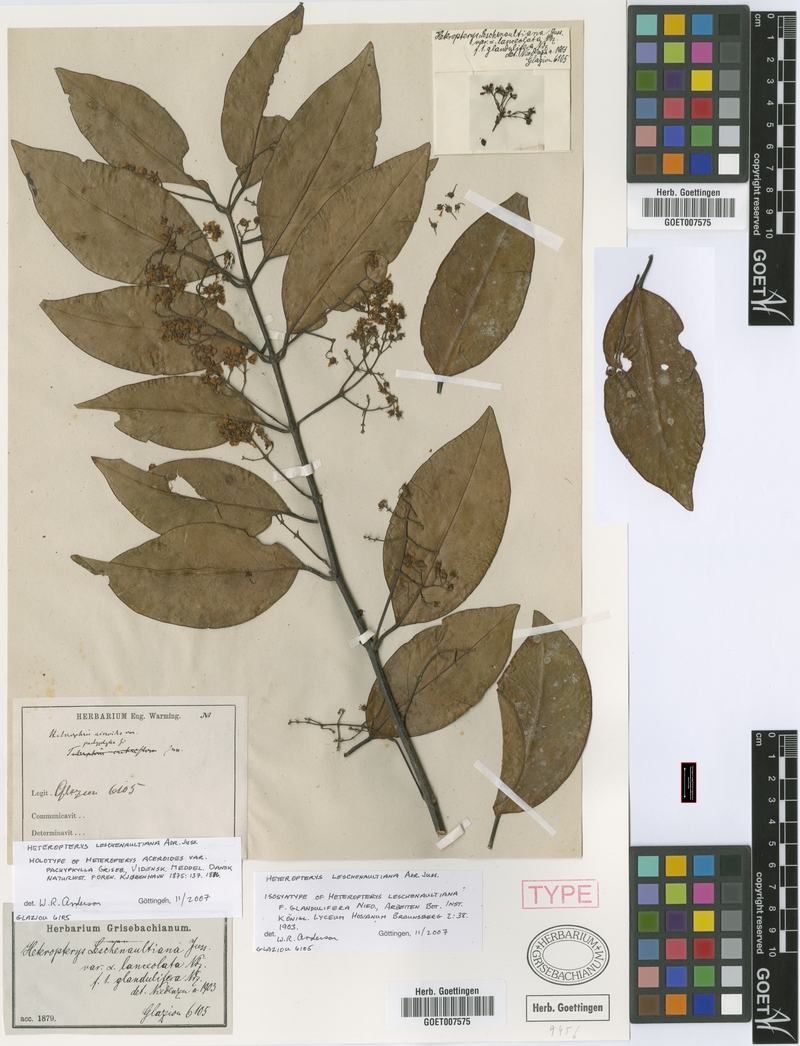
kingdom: Plantae
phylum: Tracheophyta
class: Magnoliopsida
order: Malpighiales
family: Malpighiaceae
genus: Heteropterys
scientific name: Heteropterys leschenaultiana
